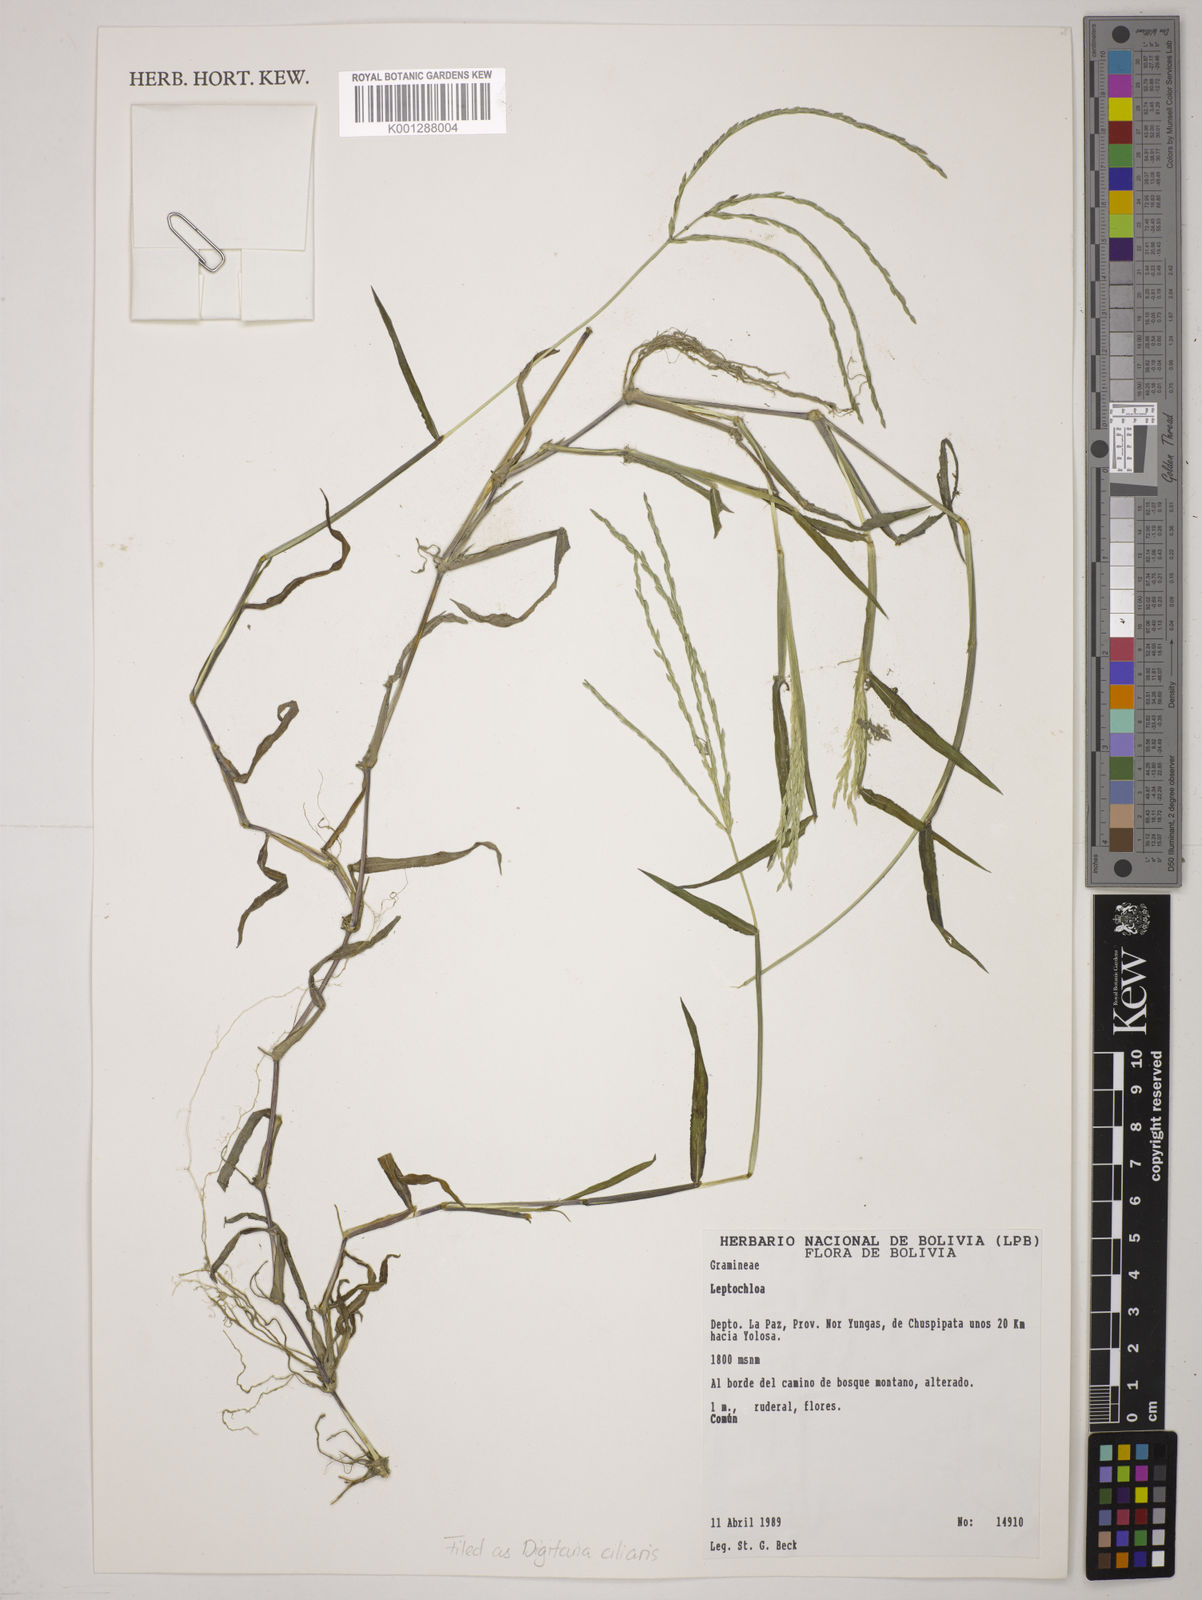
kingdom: Plantae
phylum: Tracheophyta
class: Liliopsida
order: Poales
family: Poaceae
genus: Digitaria
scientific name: Digitaria
